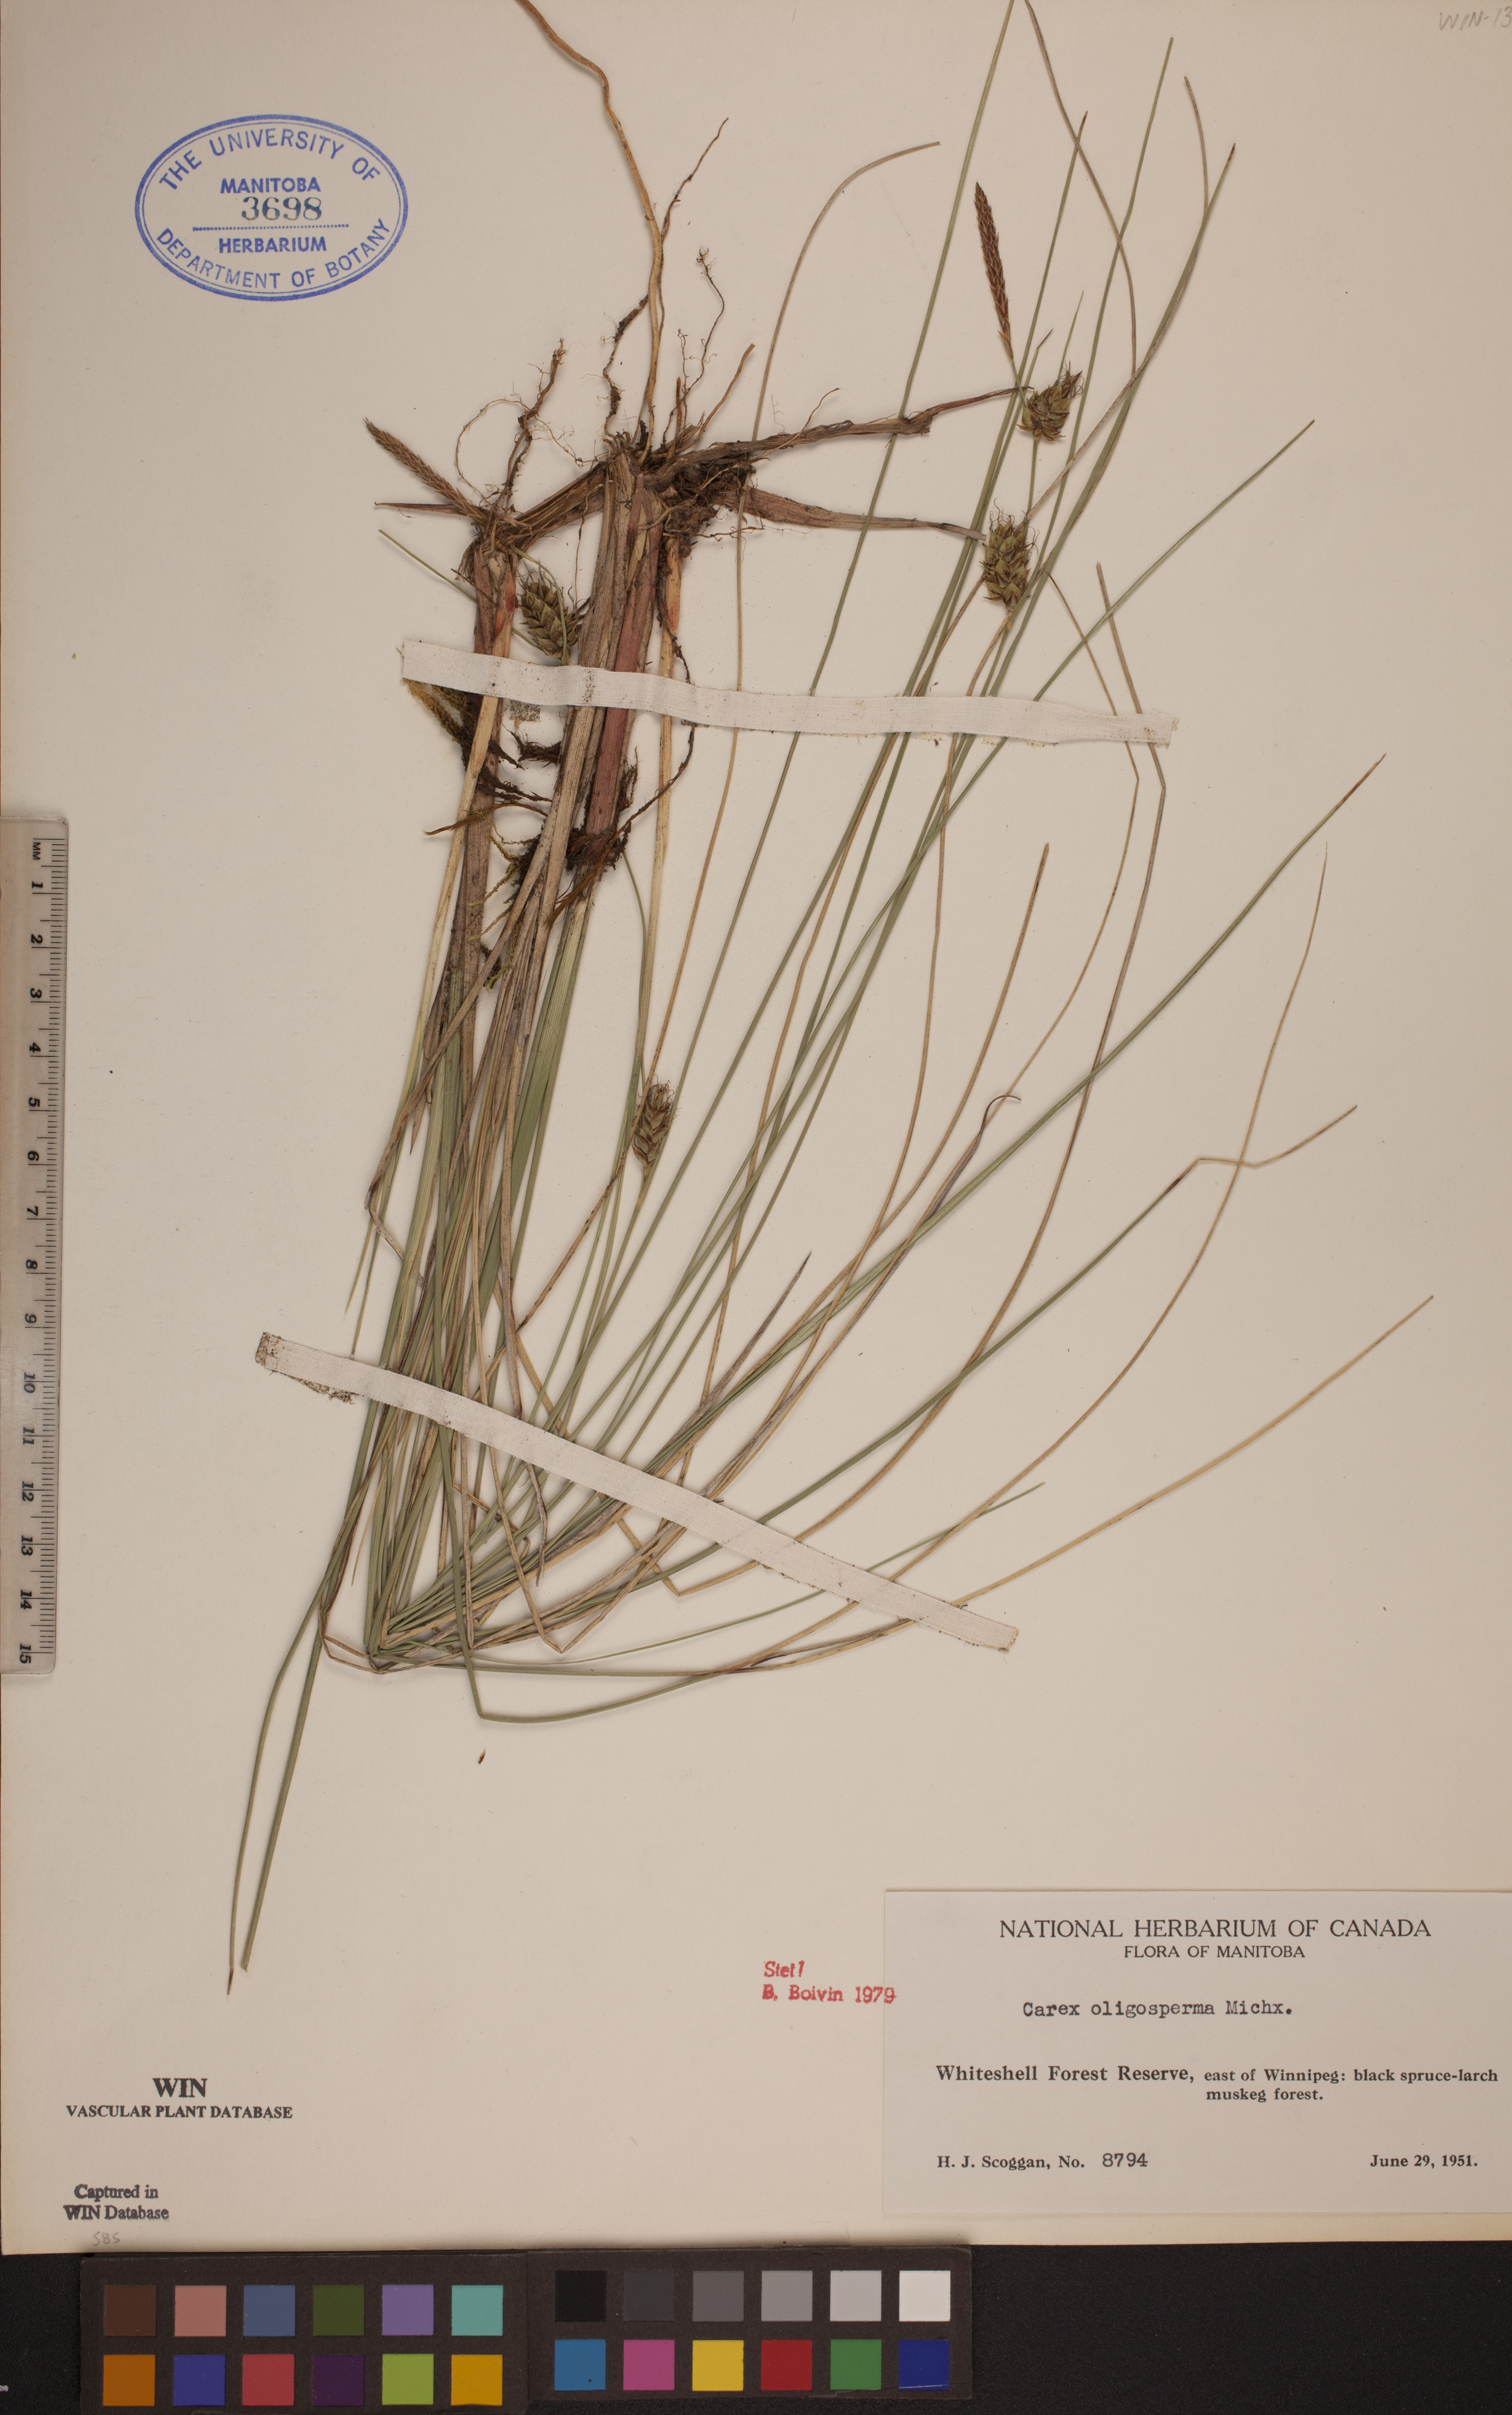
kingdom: Plantae
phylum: Tracheophyta
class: Liliopsida
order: Poales
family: Cyperaceae
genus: Carex
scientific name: Carex oligosperma
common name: Few-seed sedge
